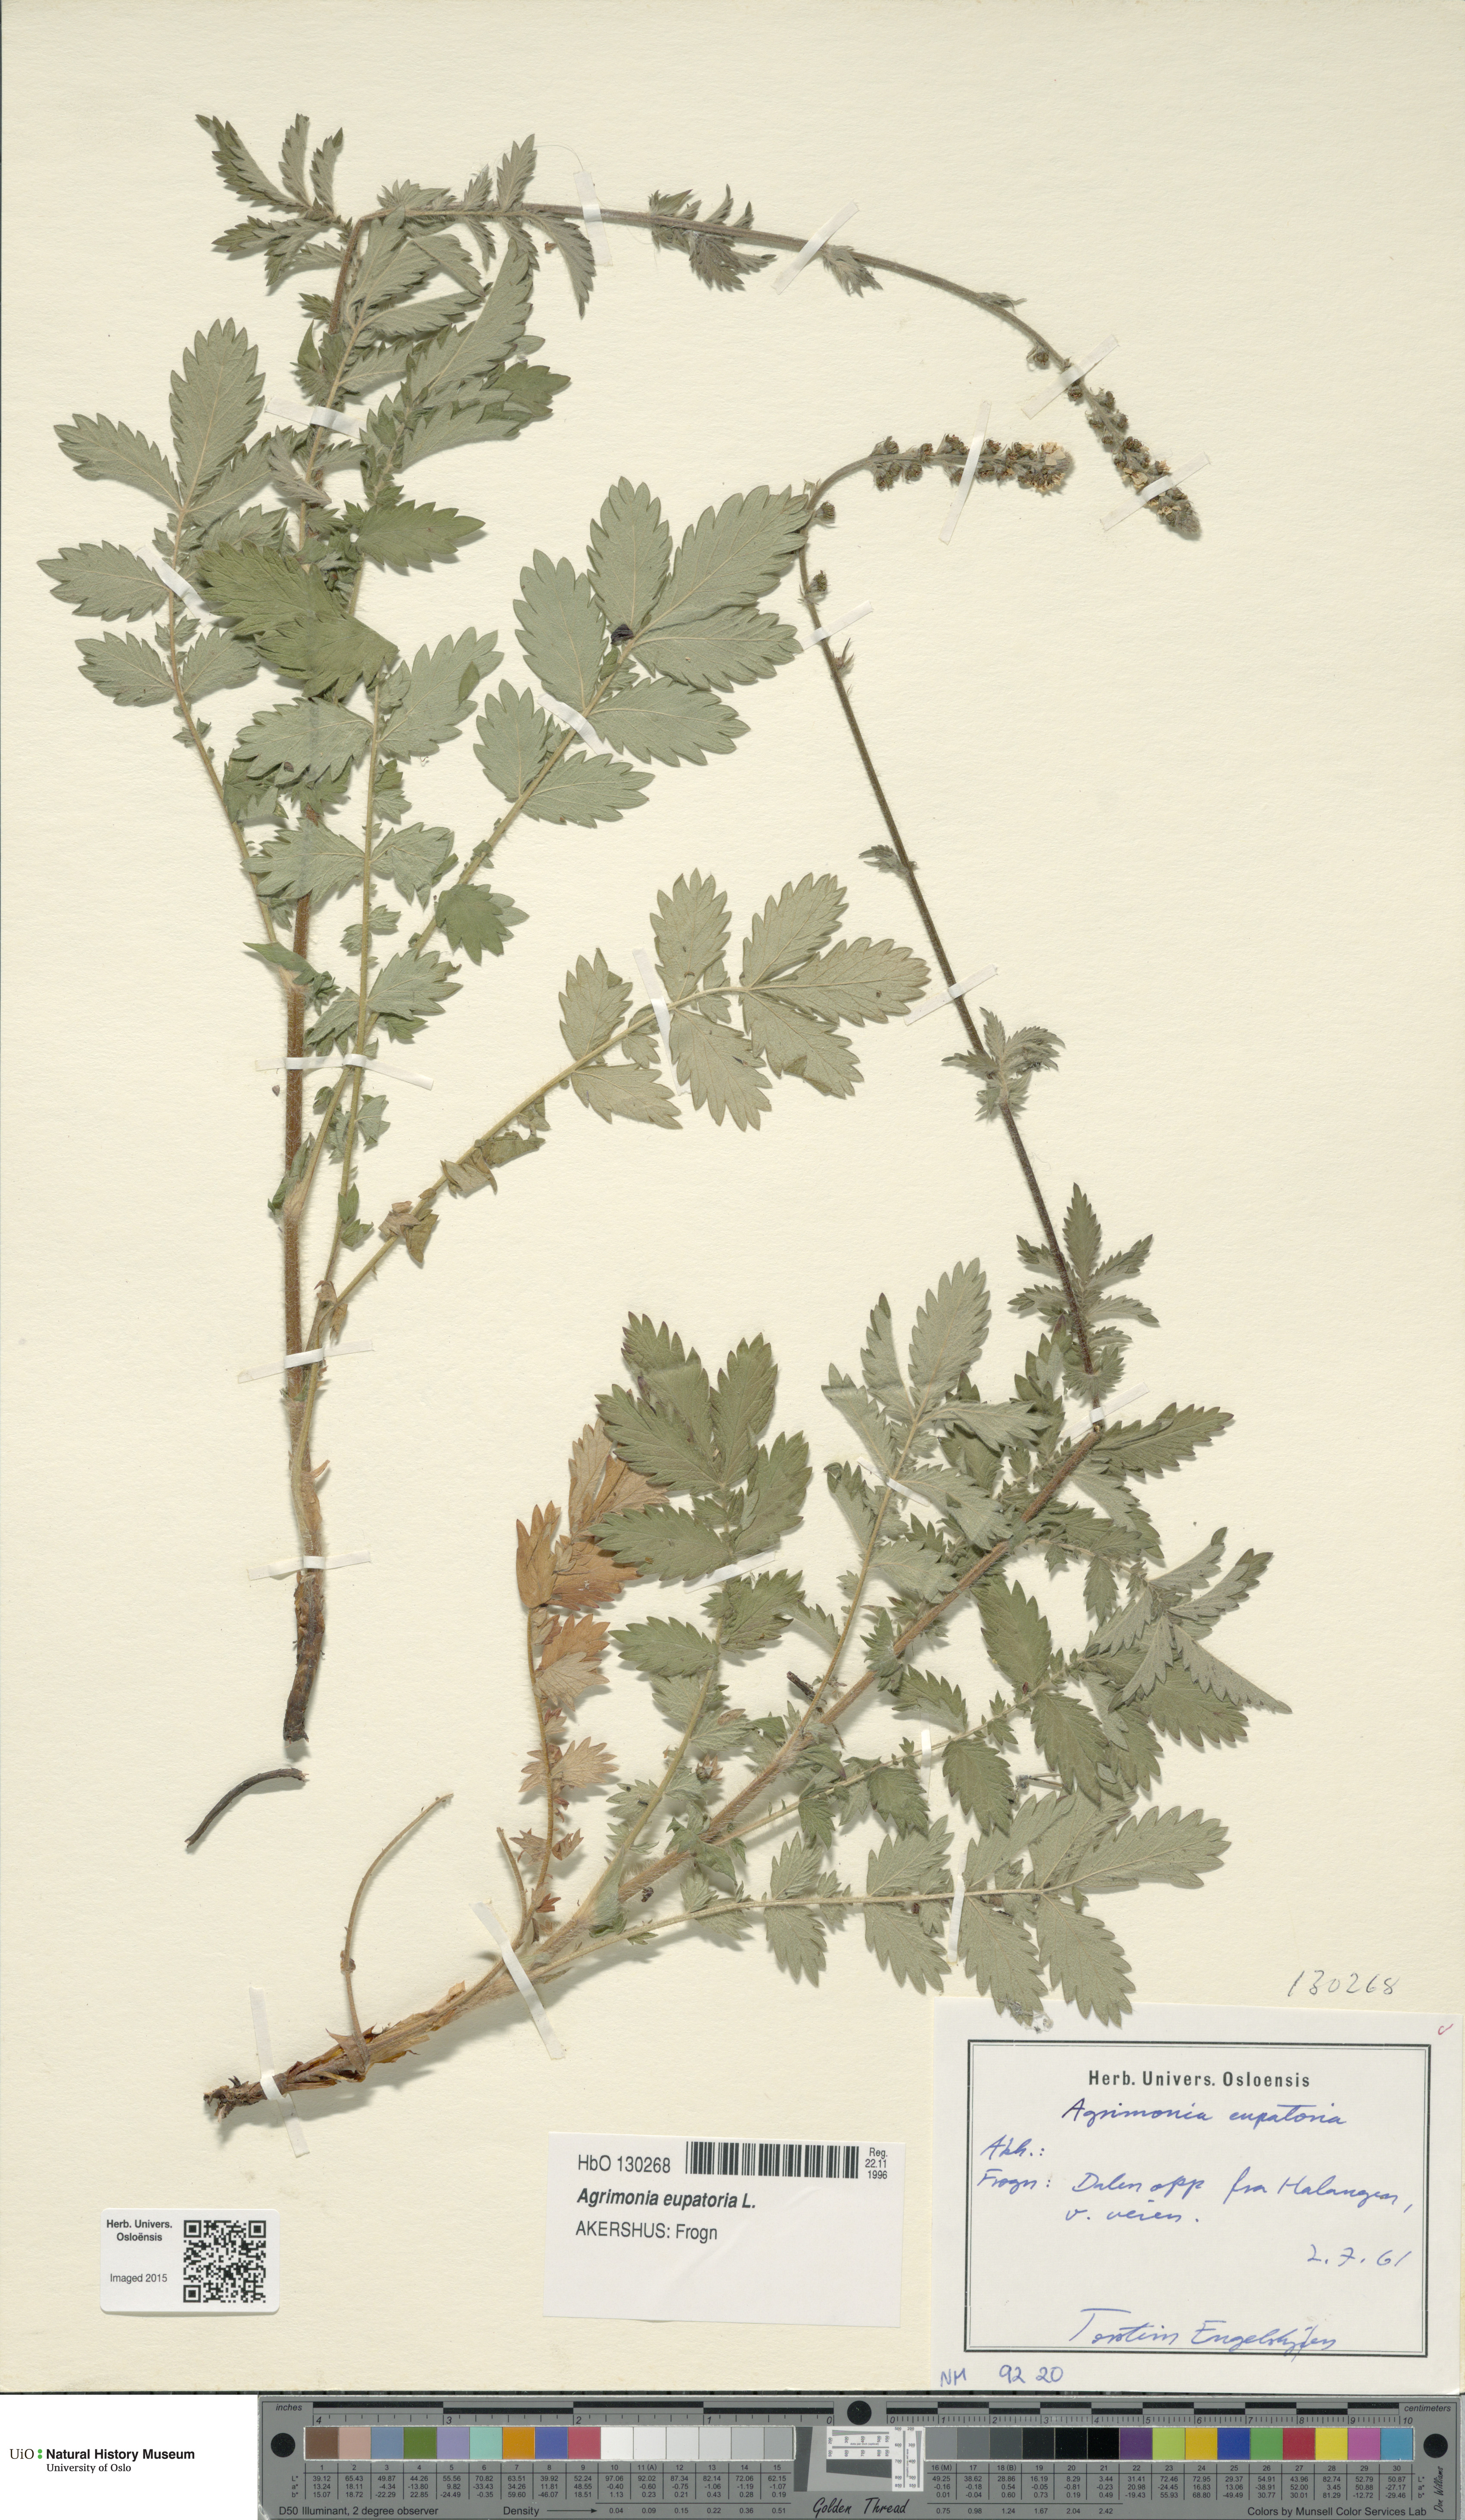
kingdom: Plantae
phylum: Tracheophyta
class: Magnoliopsida
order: Rosales
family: Rosaceae
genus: Agrimonia
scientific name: Agrimonia eupatoria
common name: Agrimony
